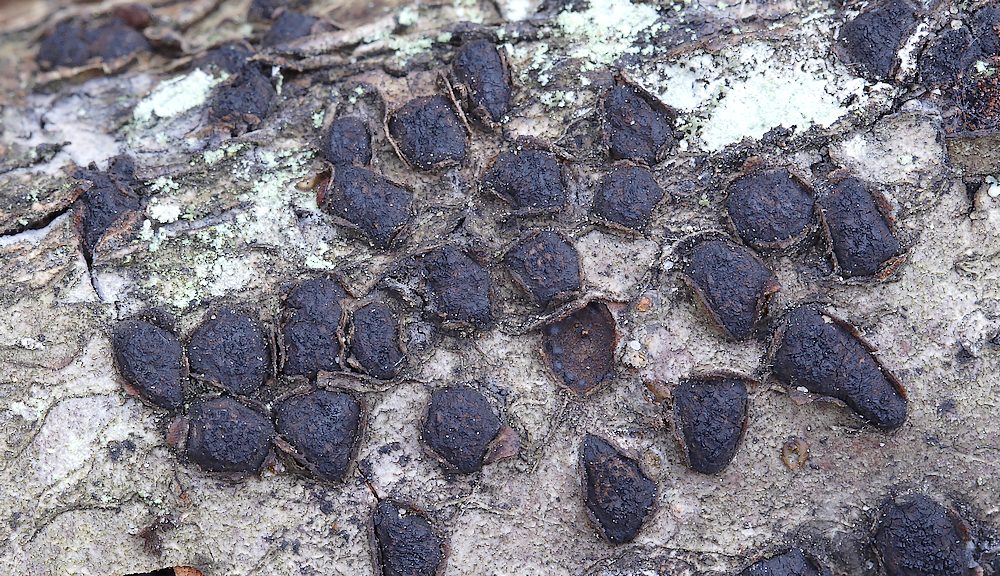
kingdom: Fungi
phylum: Ascomycota
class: Sordariomycetes
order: Xylariales
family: Diatrypaceae
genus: Diatrypella
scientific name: Diatrypella quercina
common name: ege-kulskorpe
